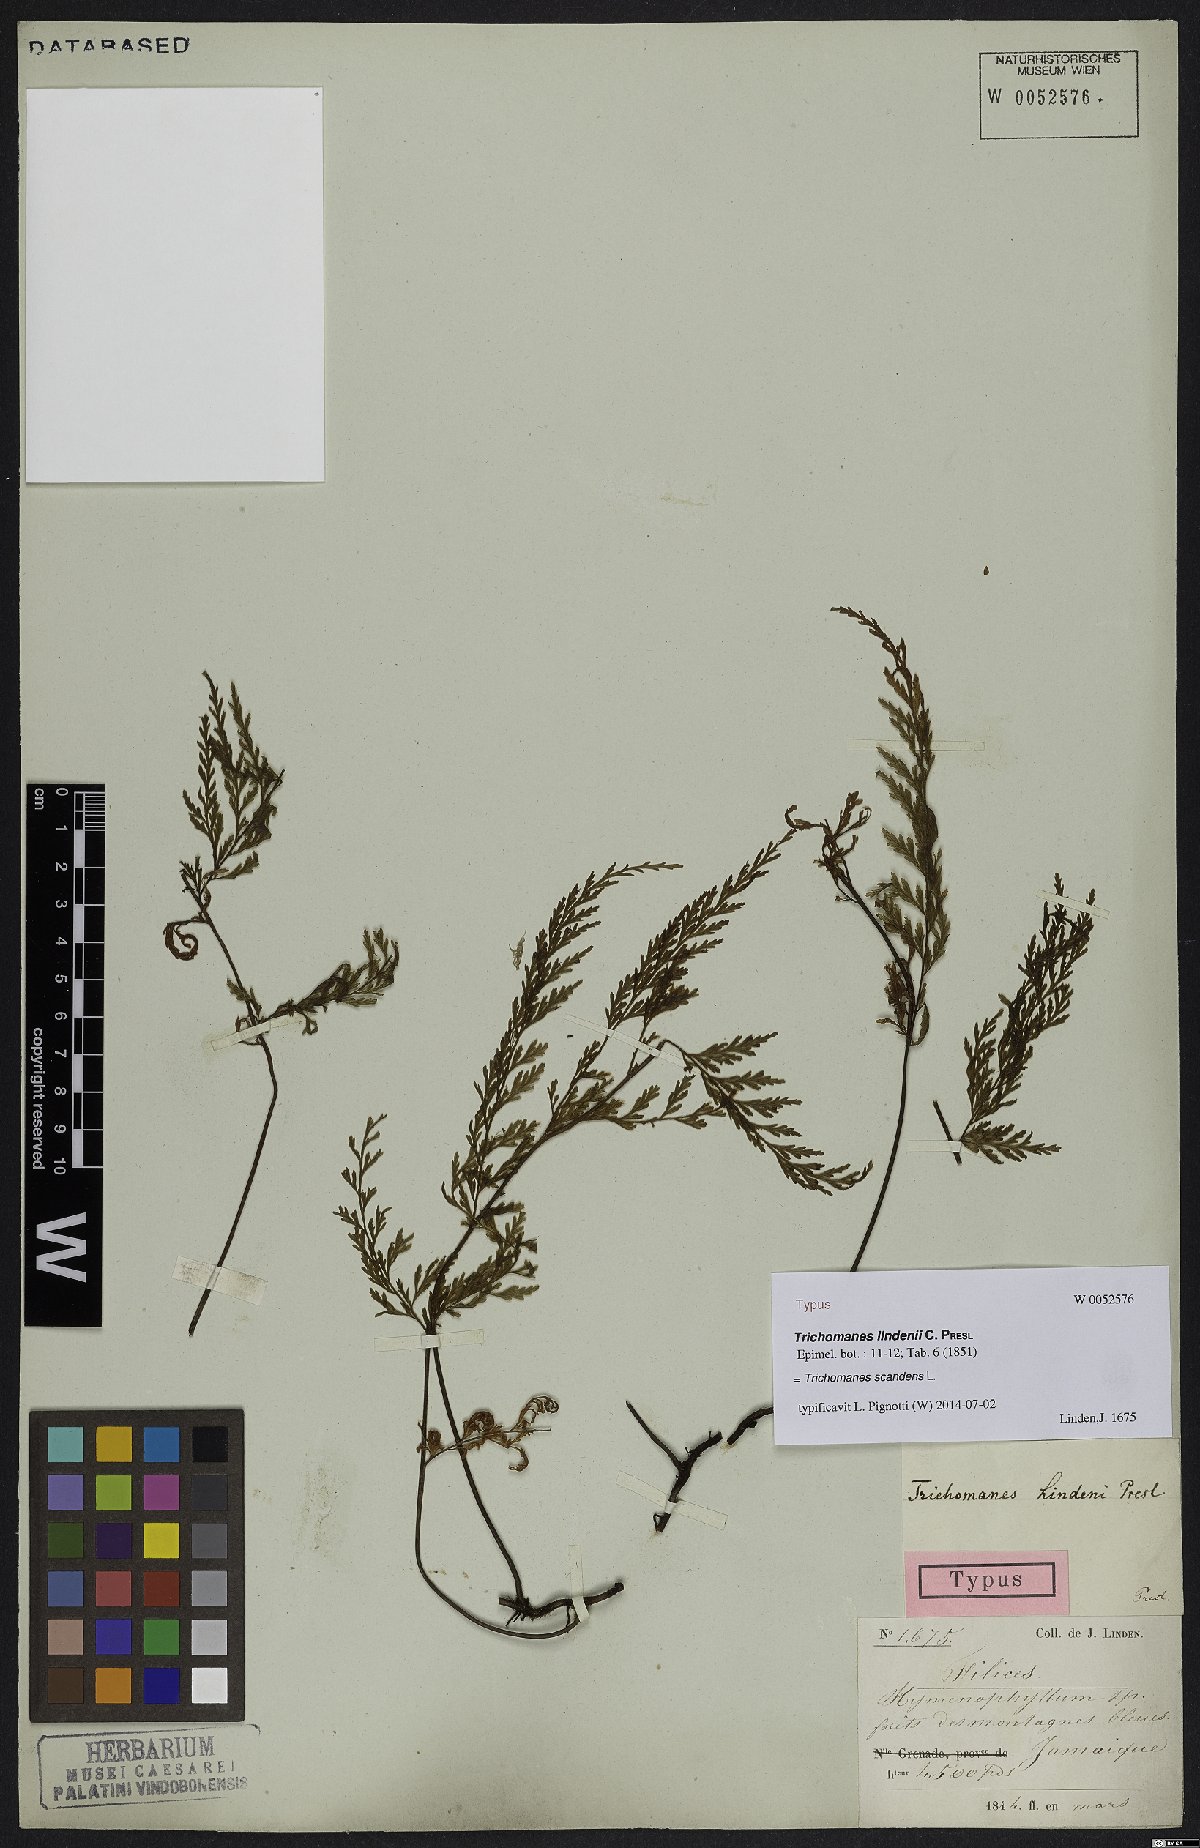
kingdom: Plantae
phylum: Tracheophyta
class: Polypodiopsida
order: Hymenophyllales
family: Hymenophyllaceae
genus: Trichomanes
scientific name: Trichomanes scandens
